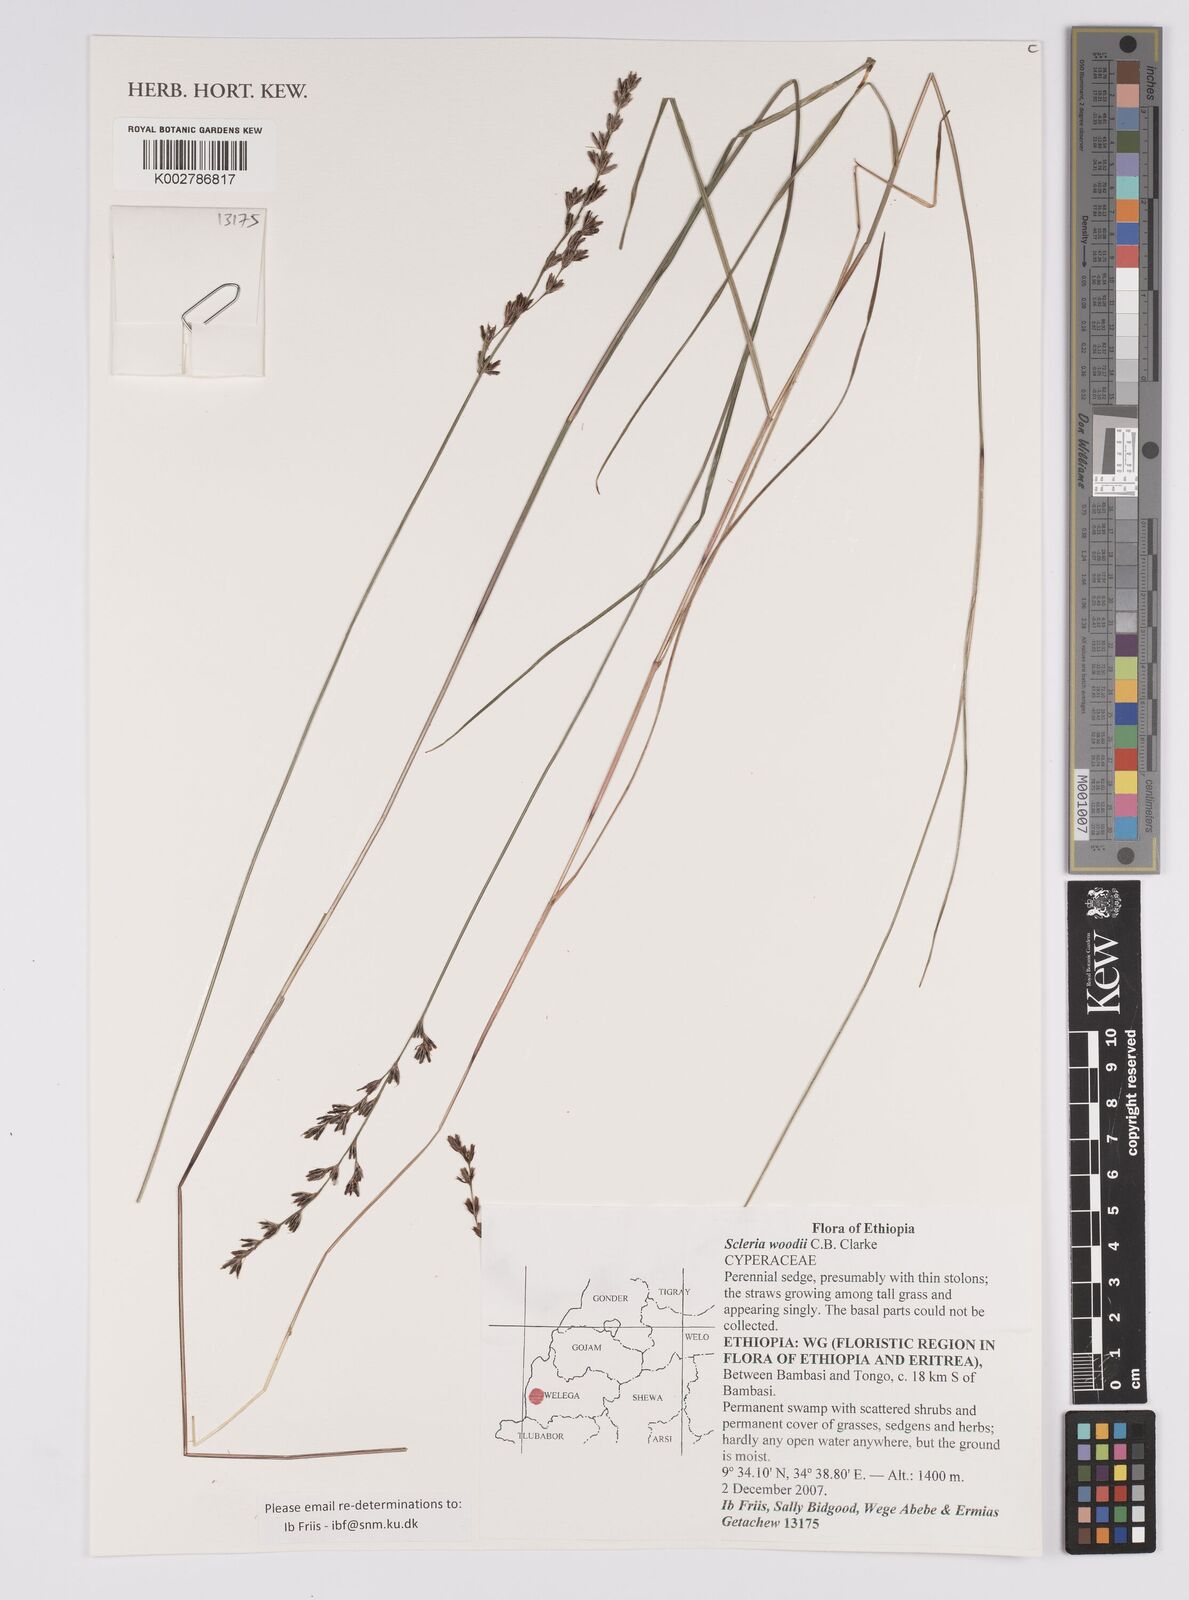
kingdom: Plantae
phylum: Tracheophyta
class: Liliopsida
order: Poales
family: Cyperaceae
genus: Scleria
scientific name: Scleria woodii
